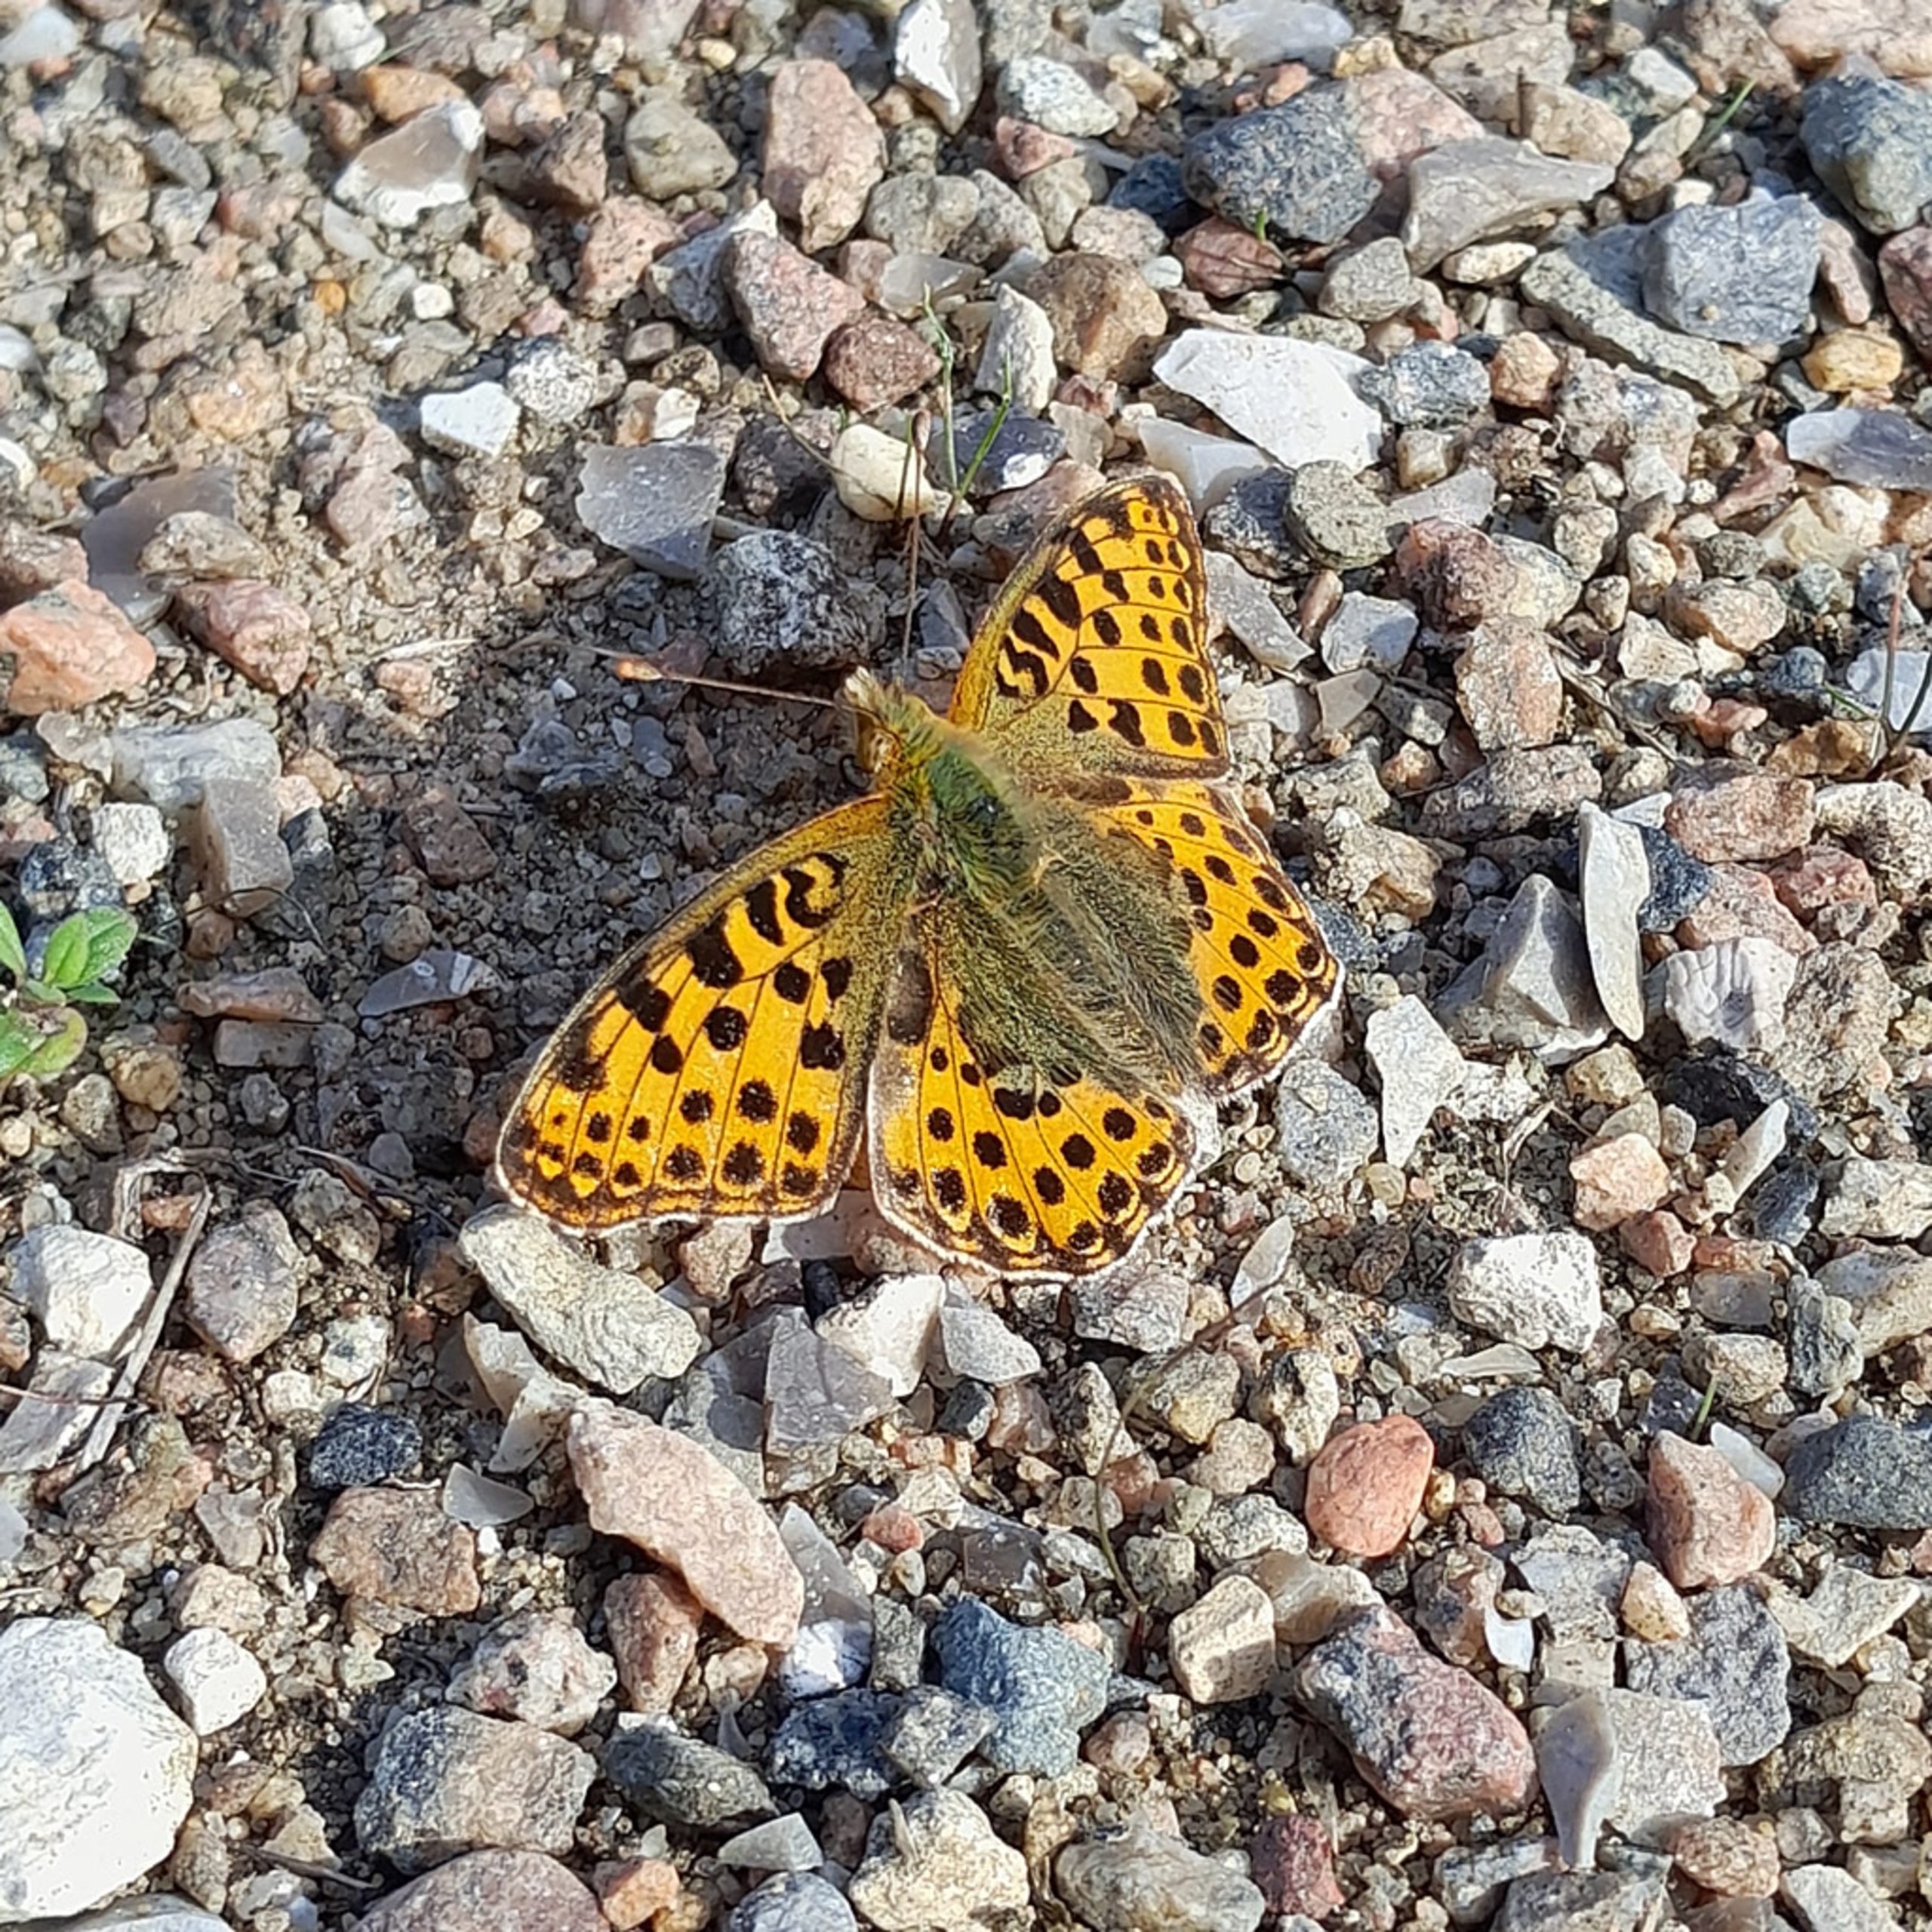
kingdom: Animalia
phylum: Arthropoda
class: Insecta
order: Lepidoptera
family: Nymphalidae
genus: Issoria
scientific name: Issoria lathonia
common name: Storplettet perlemorsommerfugl
